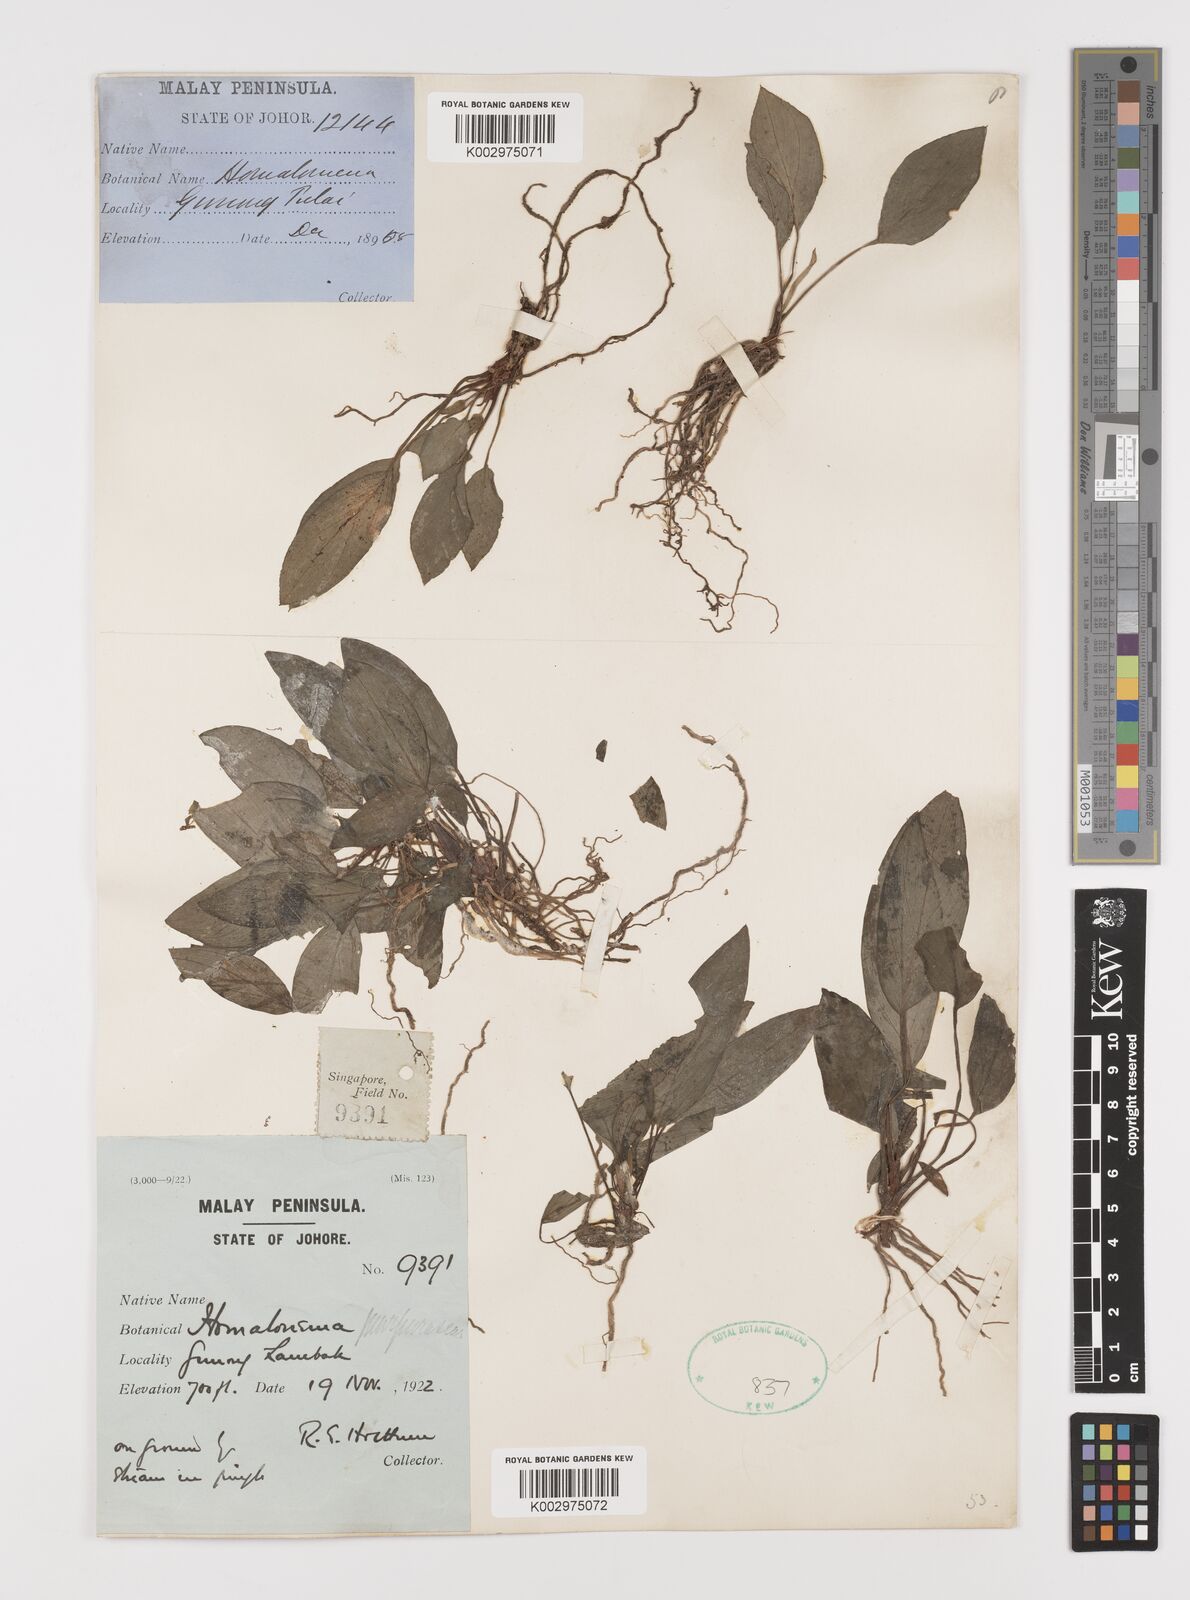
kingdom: Plantae
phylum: Tracheophyta
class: Liliopsida
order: Alismatales
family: Araceae
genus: Homalomena
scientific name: Homalomena humilis
